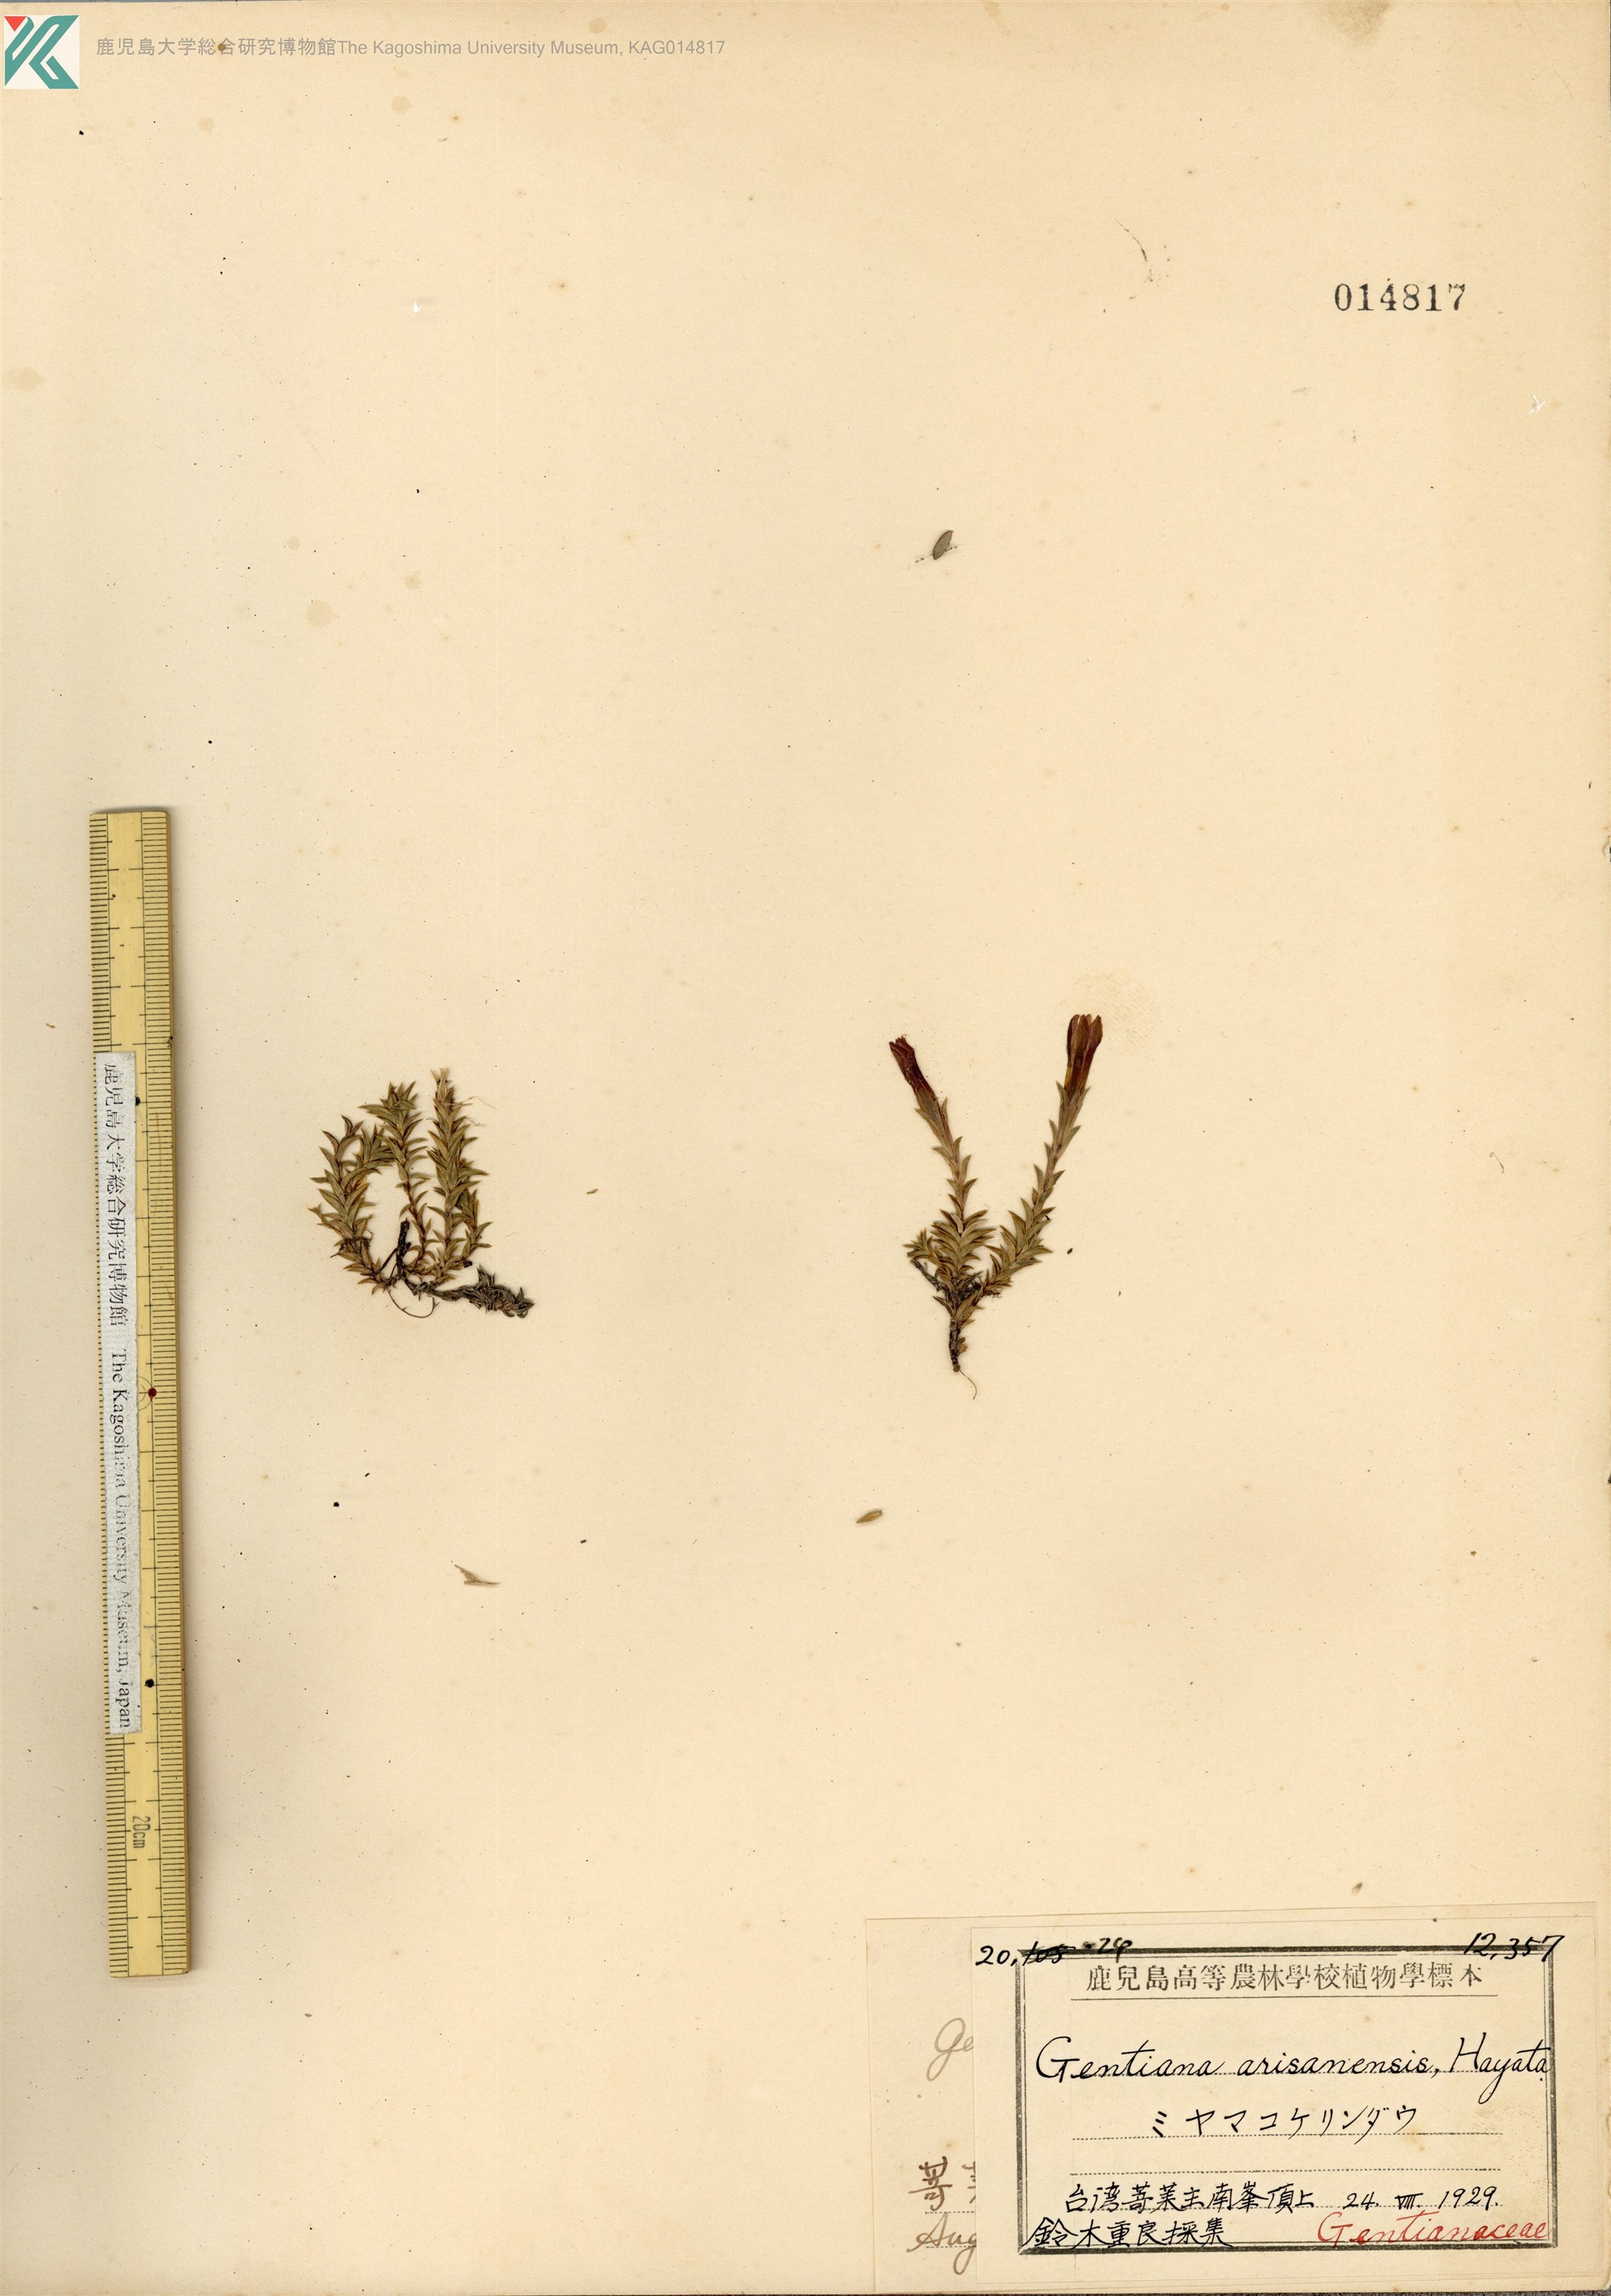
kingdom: Plantae
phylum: Tracheophyta
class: Magnoliopsida
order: Gentianales
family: Gentianaceae
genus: Gentiana
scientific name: Gentiana arisanensis
